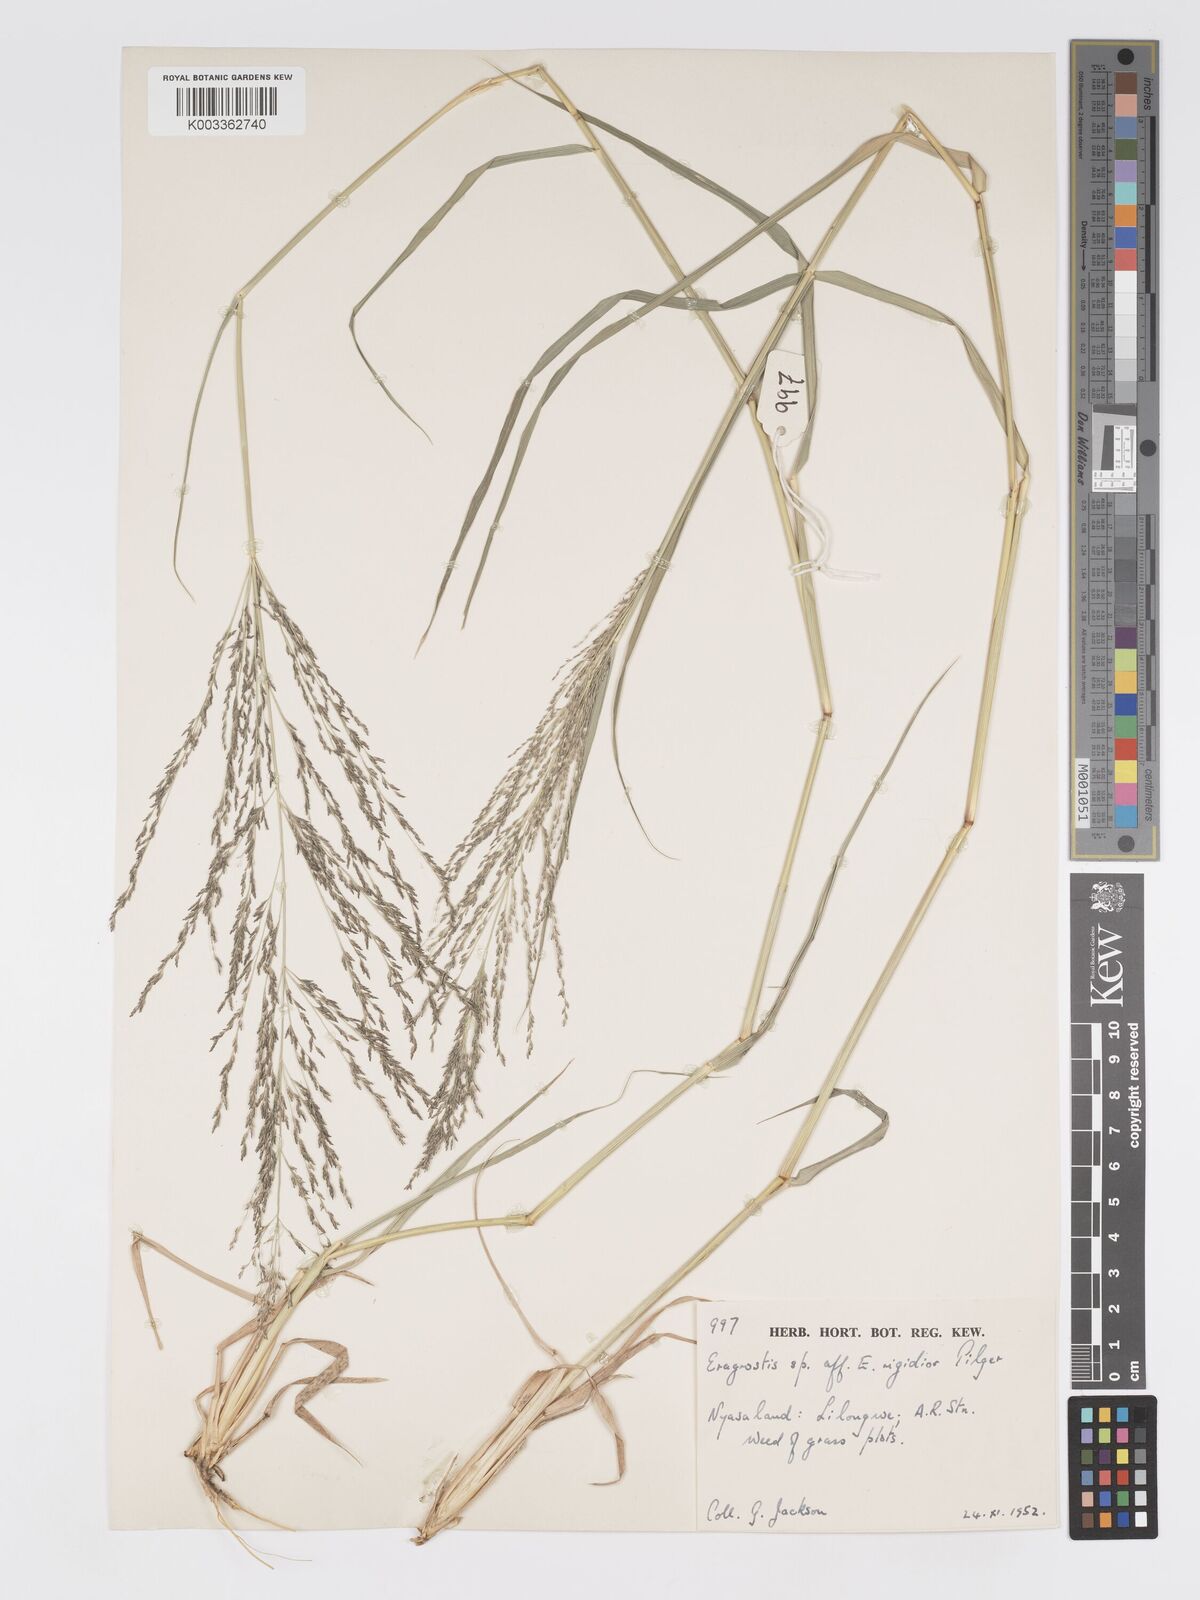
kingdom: Plantae
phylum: Tracheophyta
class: Liliopsida
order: Poales
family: Poaceae
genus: Eragrostis
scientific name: Eragrostis cylindriflora
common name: Cylinderflower lovegrass
